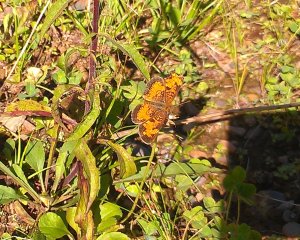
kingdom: Animalia
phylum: Arthropoda
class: Insecta
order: Lepidoptera
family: Nymphalidae
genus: Phyciodes
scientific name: Phyciodes tharos
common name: Northern Crescent
